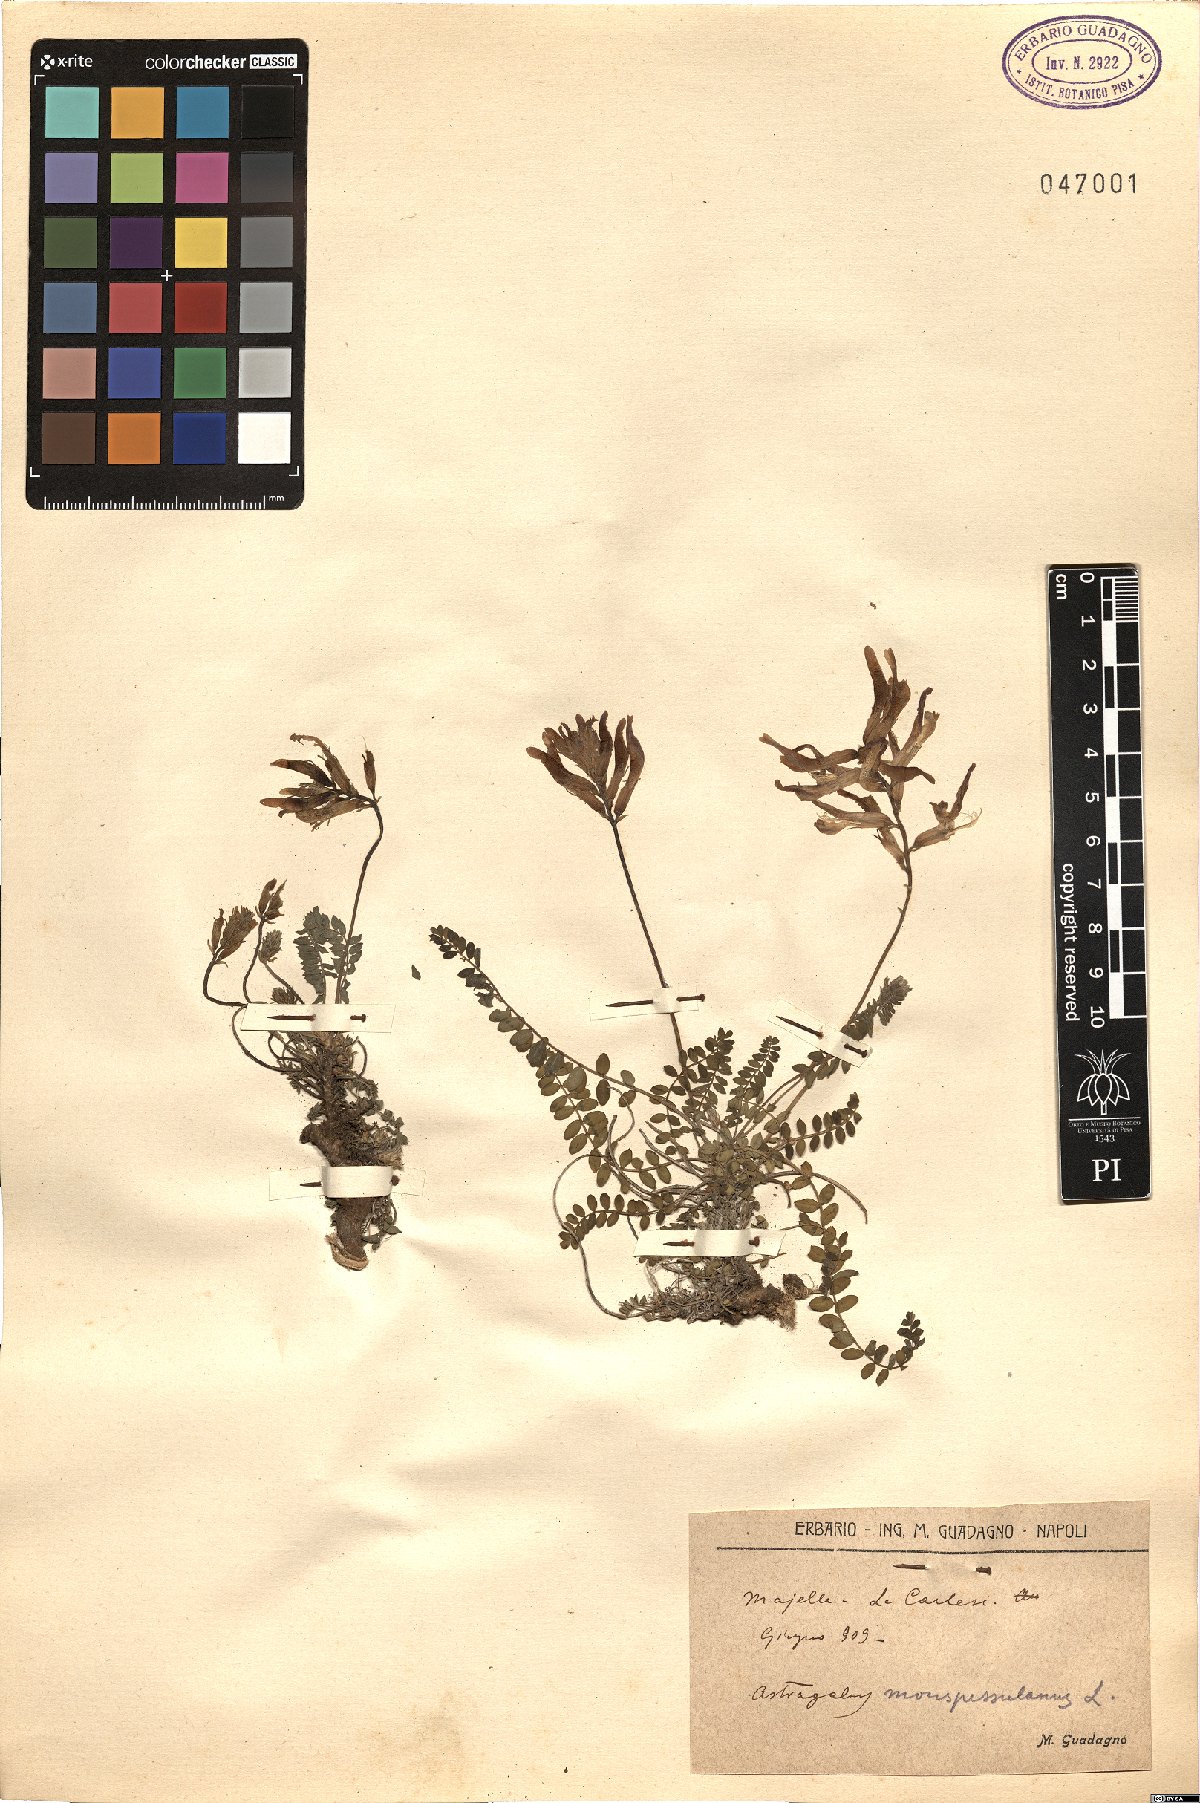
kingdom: Plantae
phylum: Tracheophyta
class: Magnoliopsida
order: Fabales
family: Fabaceae
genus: Astragalus
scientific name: Astragalus monspessulanus
